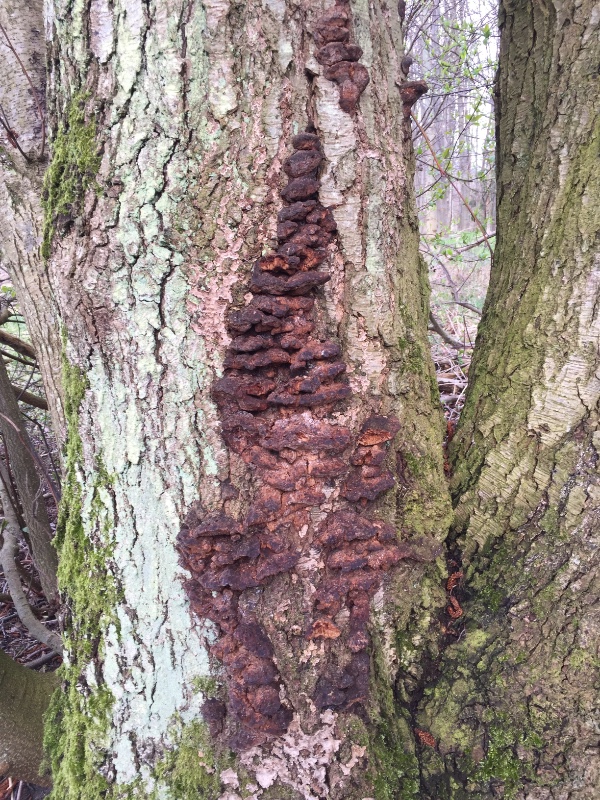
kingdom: Fungi
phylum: Basidiomycota
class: Agaricomycetes
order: Hymenochaetales
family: Hymenochaetaceae
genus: Xanthoporia
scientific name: Xanthoporia radiata
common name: elle-spejlporesvamp
